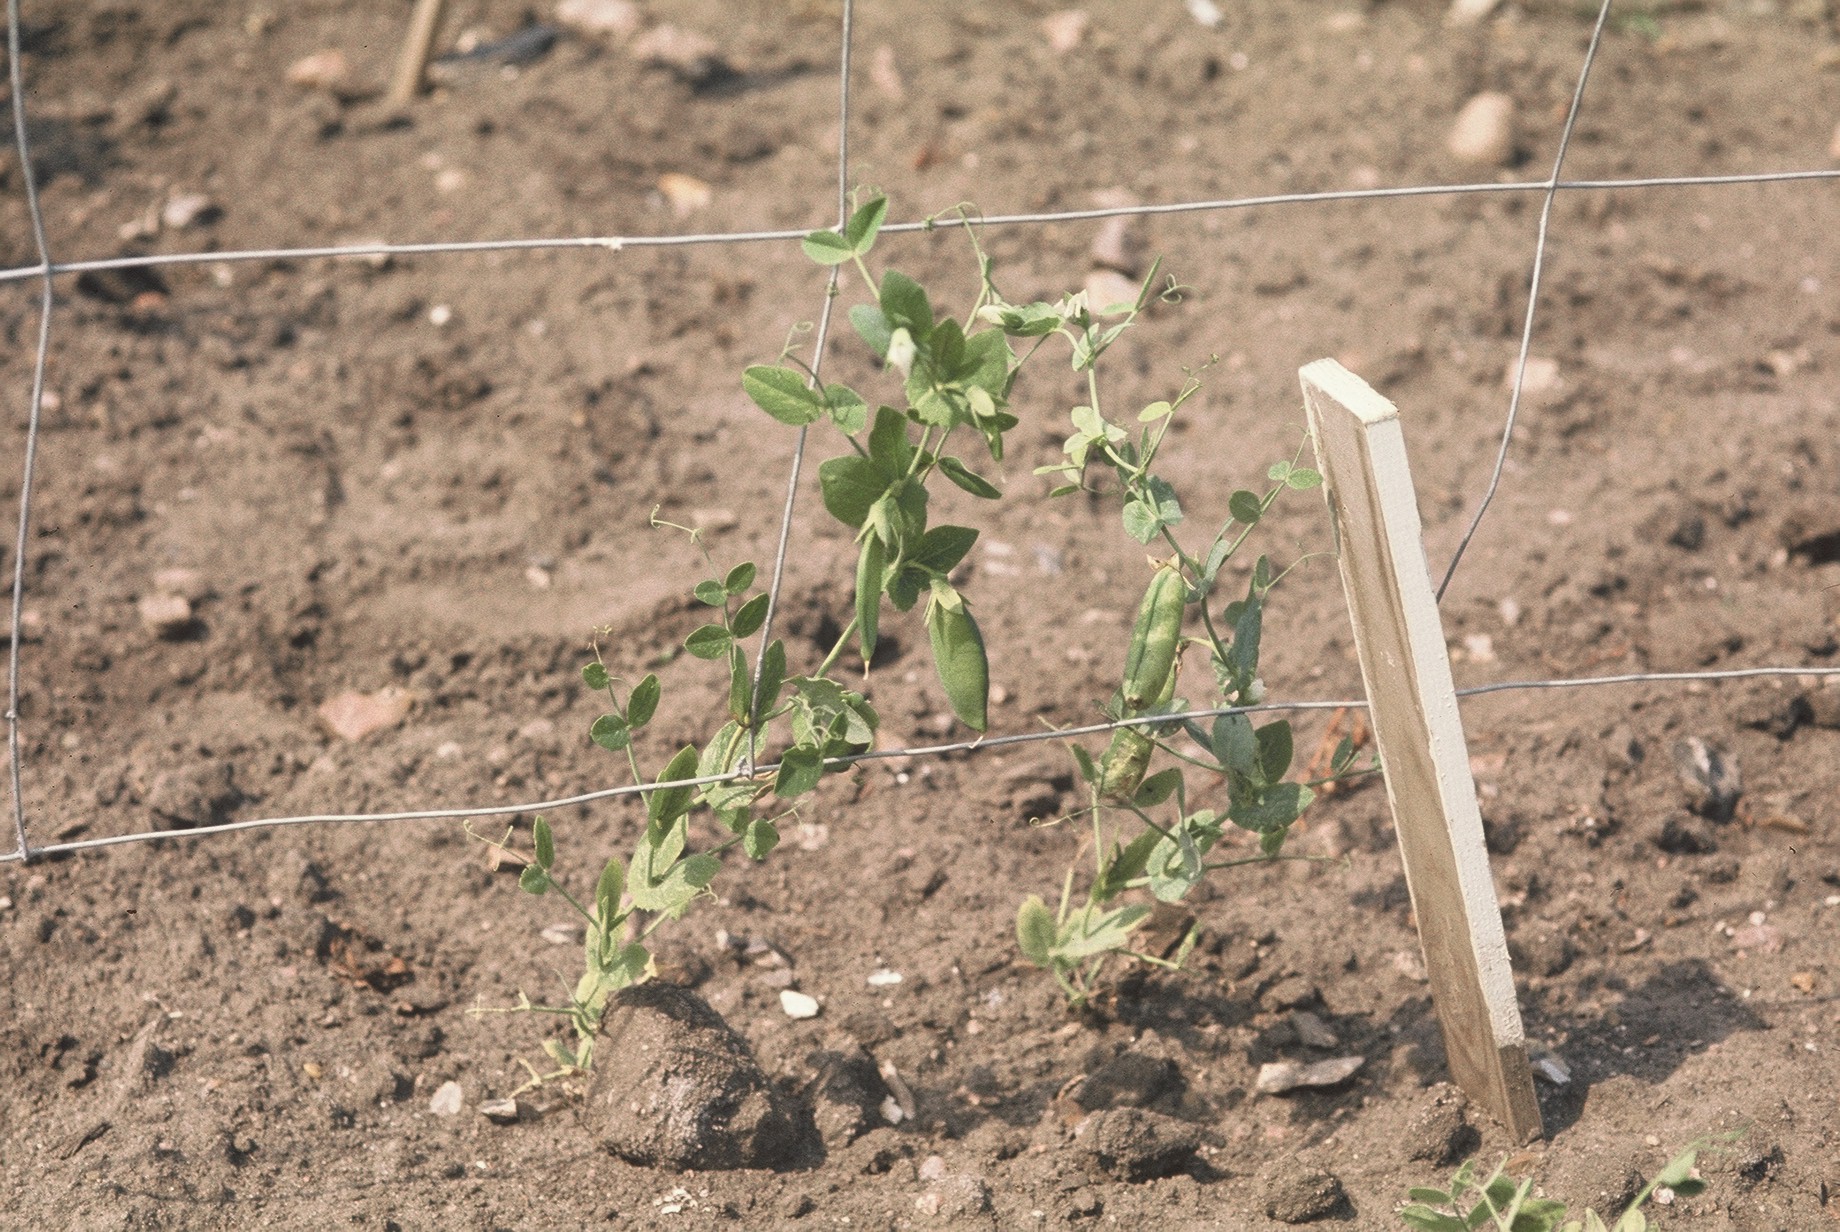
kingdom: Plantae
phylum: Tracheophyta
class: Magnoliopsida
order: Fabales
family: Fabaceae
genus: Lathyrus
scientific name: Lathyrus oleraceus
